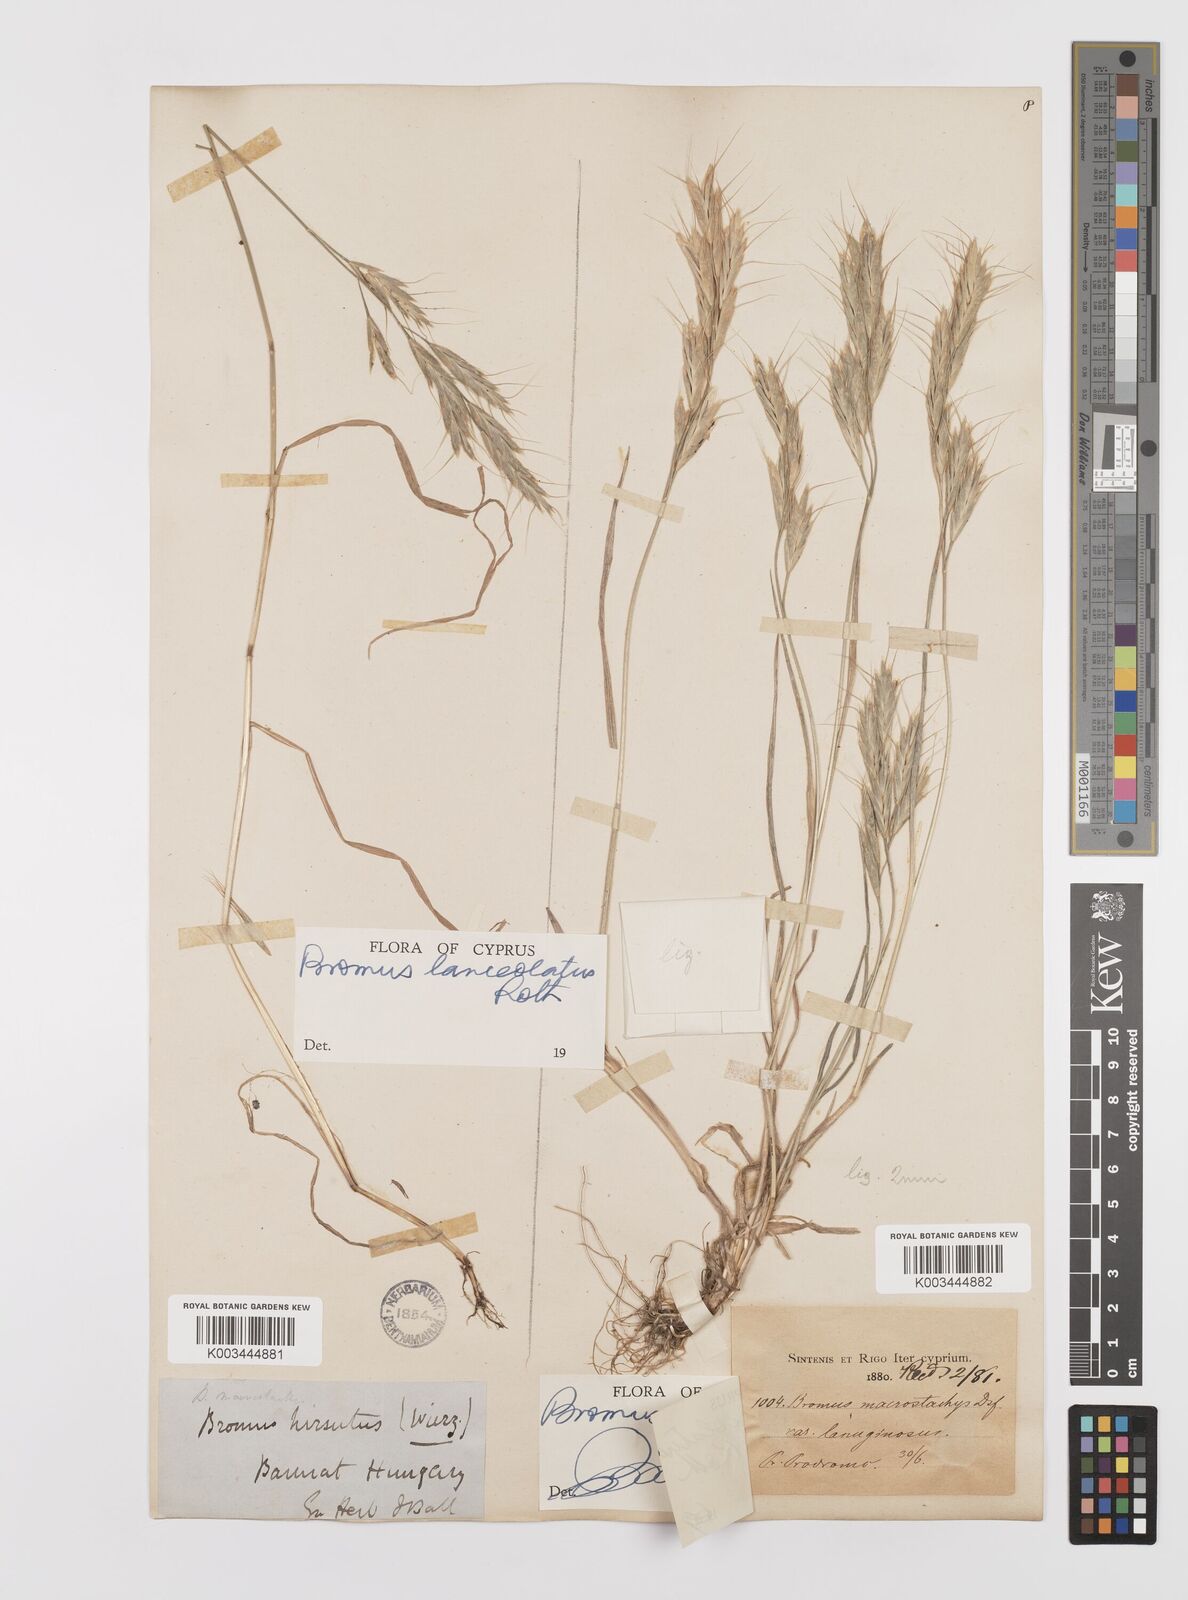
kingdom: Plantae
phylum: Tracheophyta
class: Liliopsida
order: Poales
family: Poaceae
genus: Bromus
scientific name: Bromus lanceolatus
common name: Mediterranean brome
